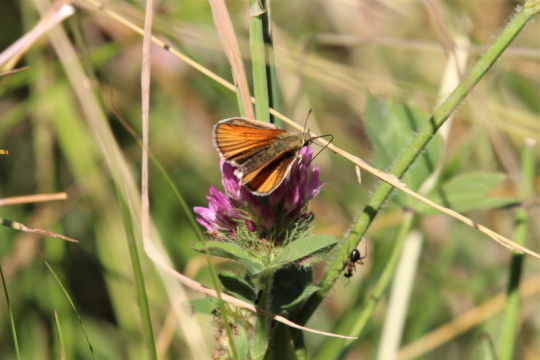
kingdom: Animalia
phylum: Arthropoda
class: Insecta
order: Lepidoptera
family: Hesperiidae
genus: Thymelicus
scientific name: Thymelicus lineola
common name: European Skipper
